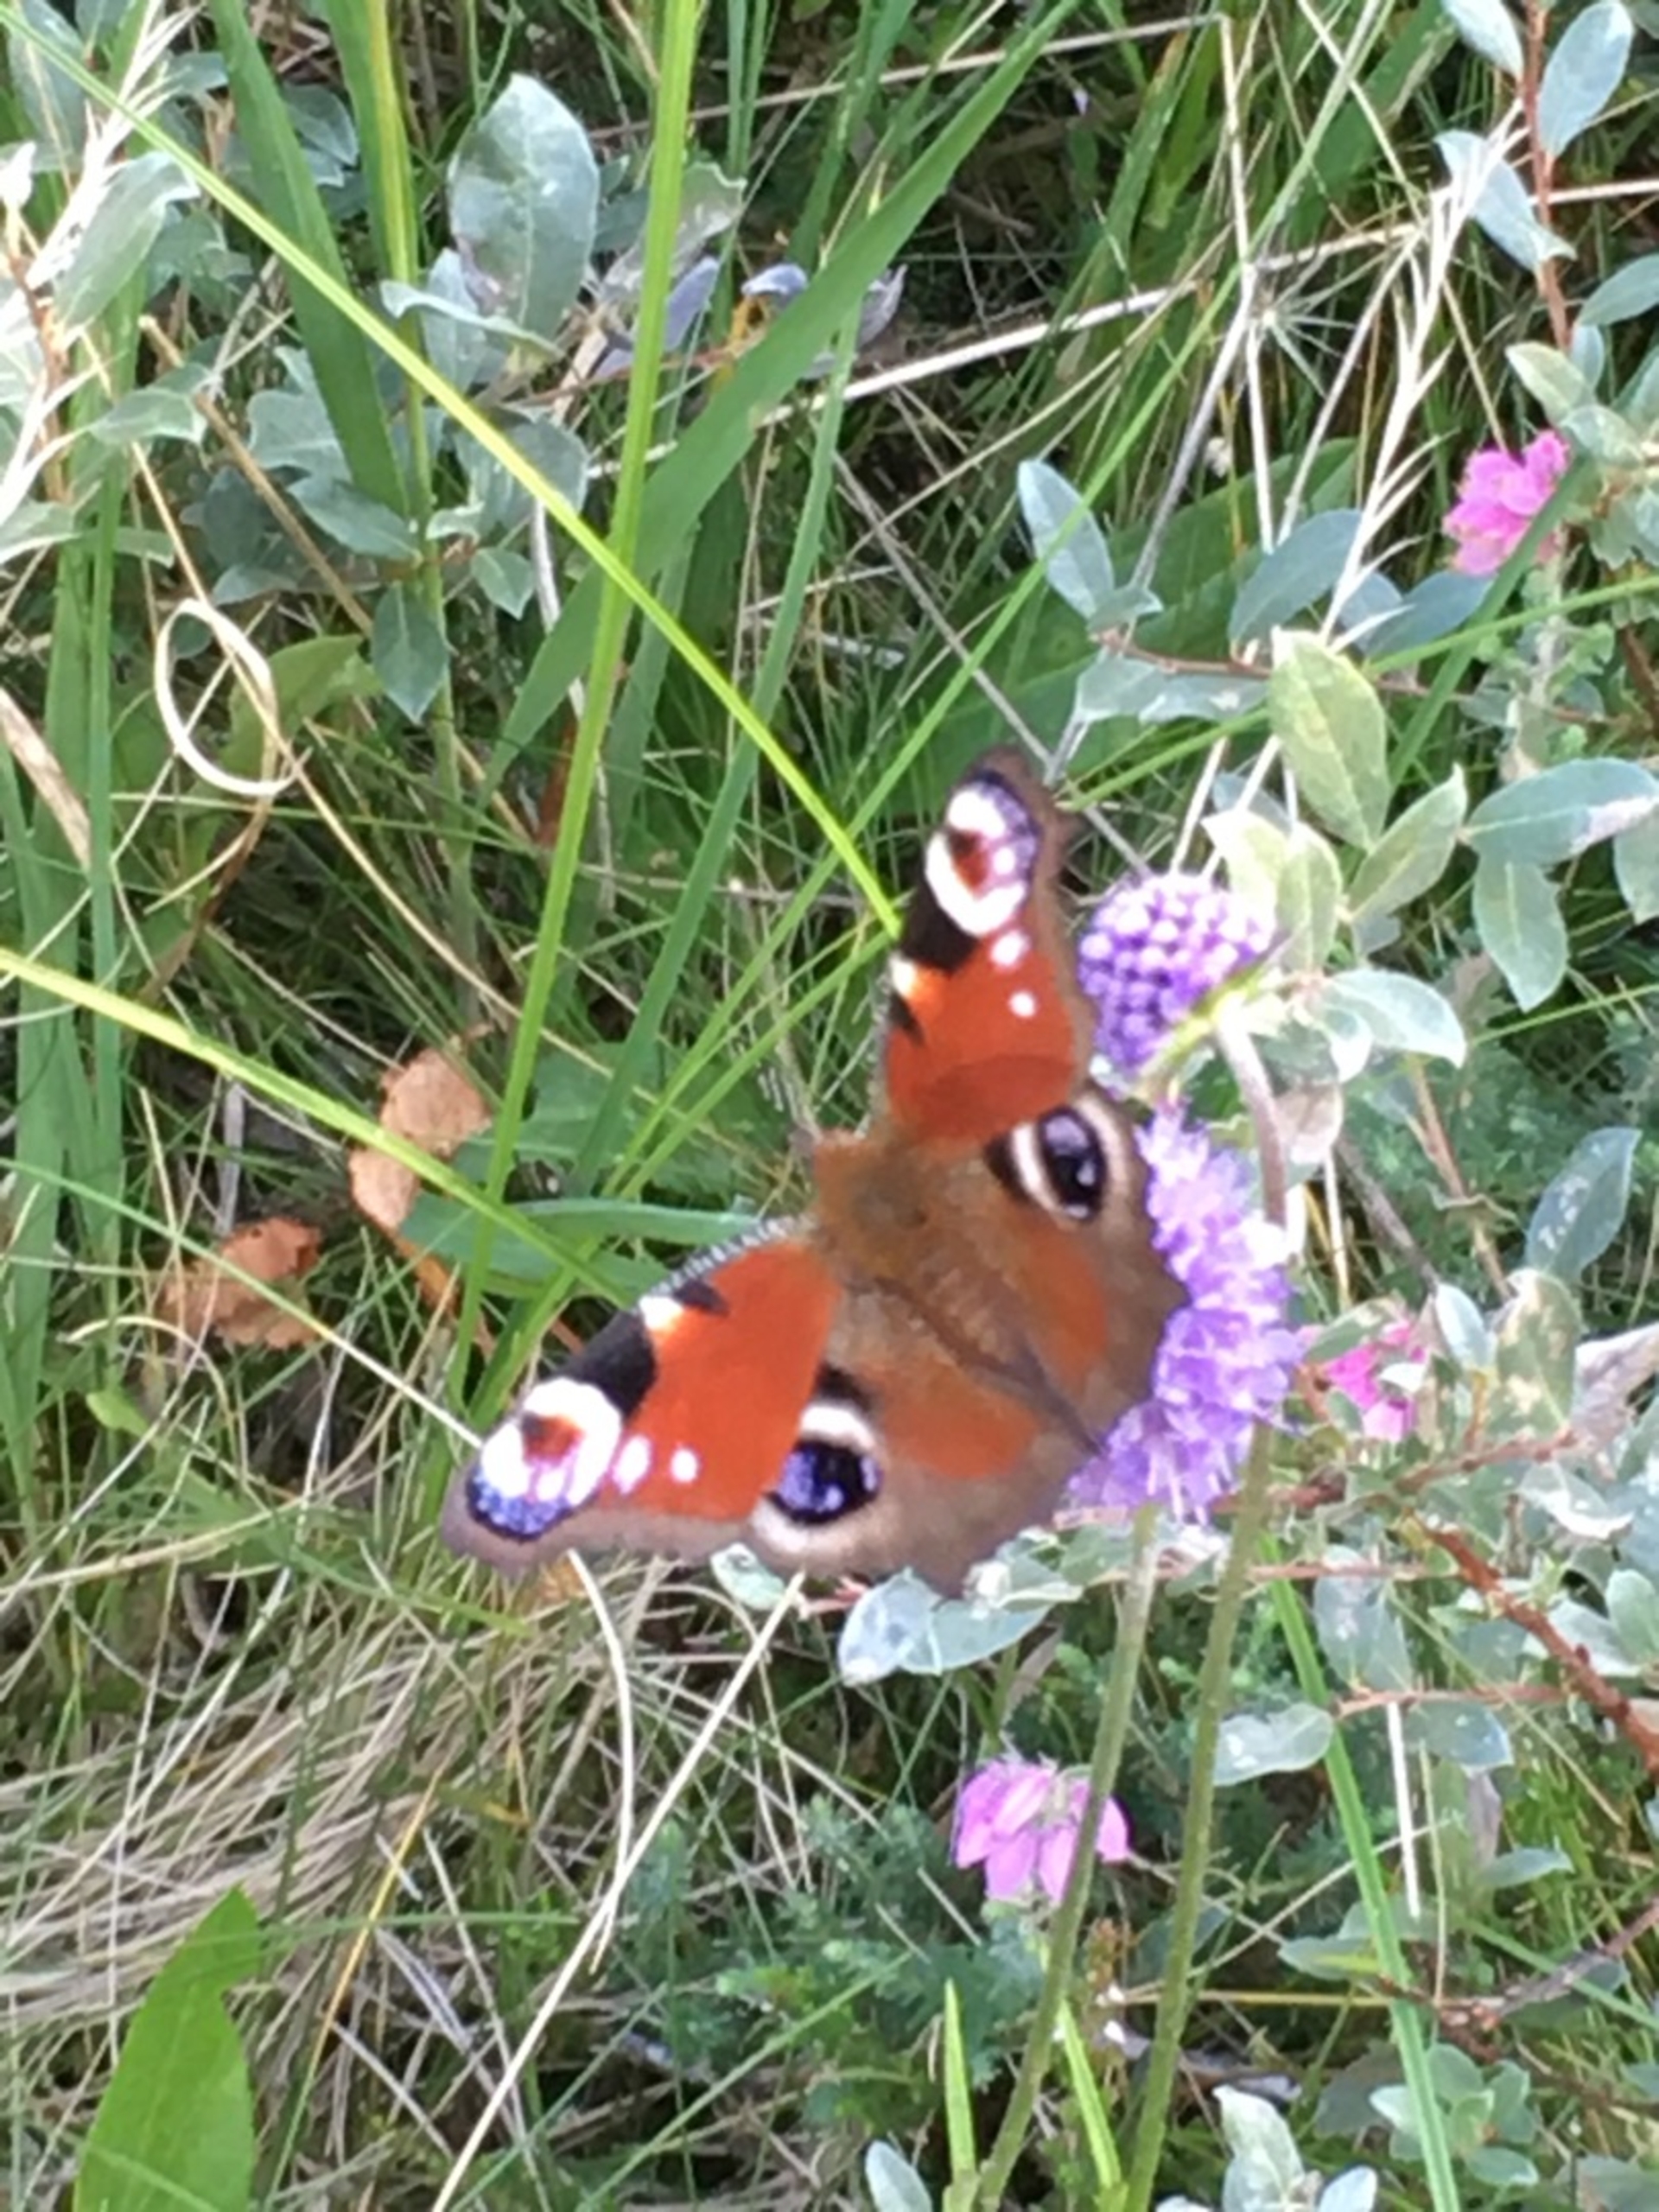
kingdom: Animalia
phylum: Arthropoda
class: Insecta
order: Lepidoptera
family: Nymphalidae
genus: Aglais
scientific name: Aglais io
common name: Dagpåfugleøje
